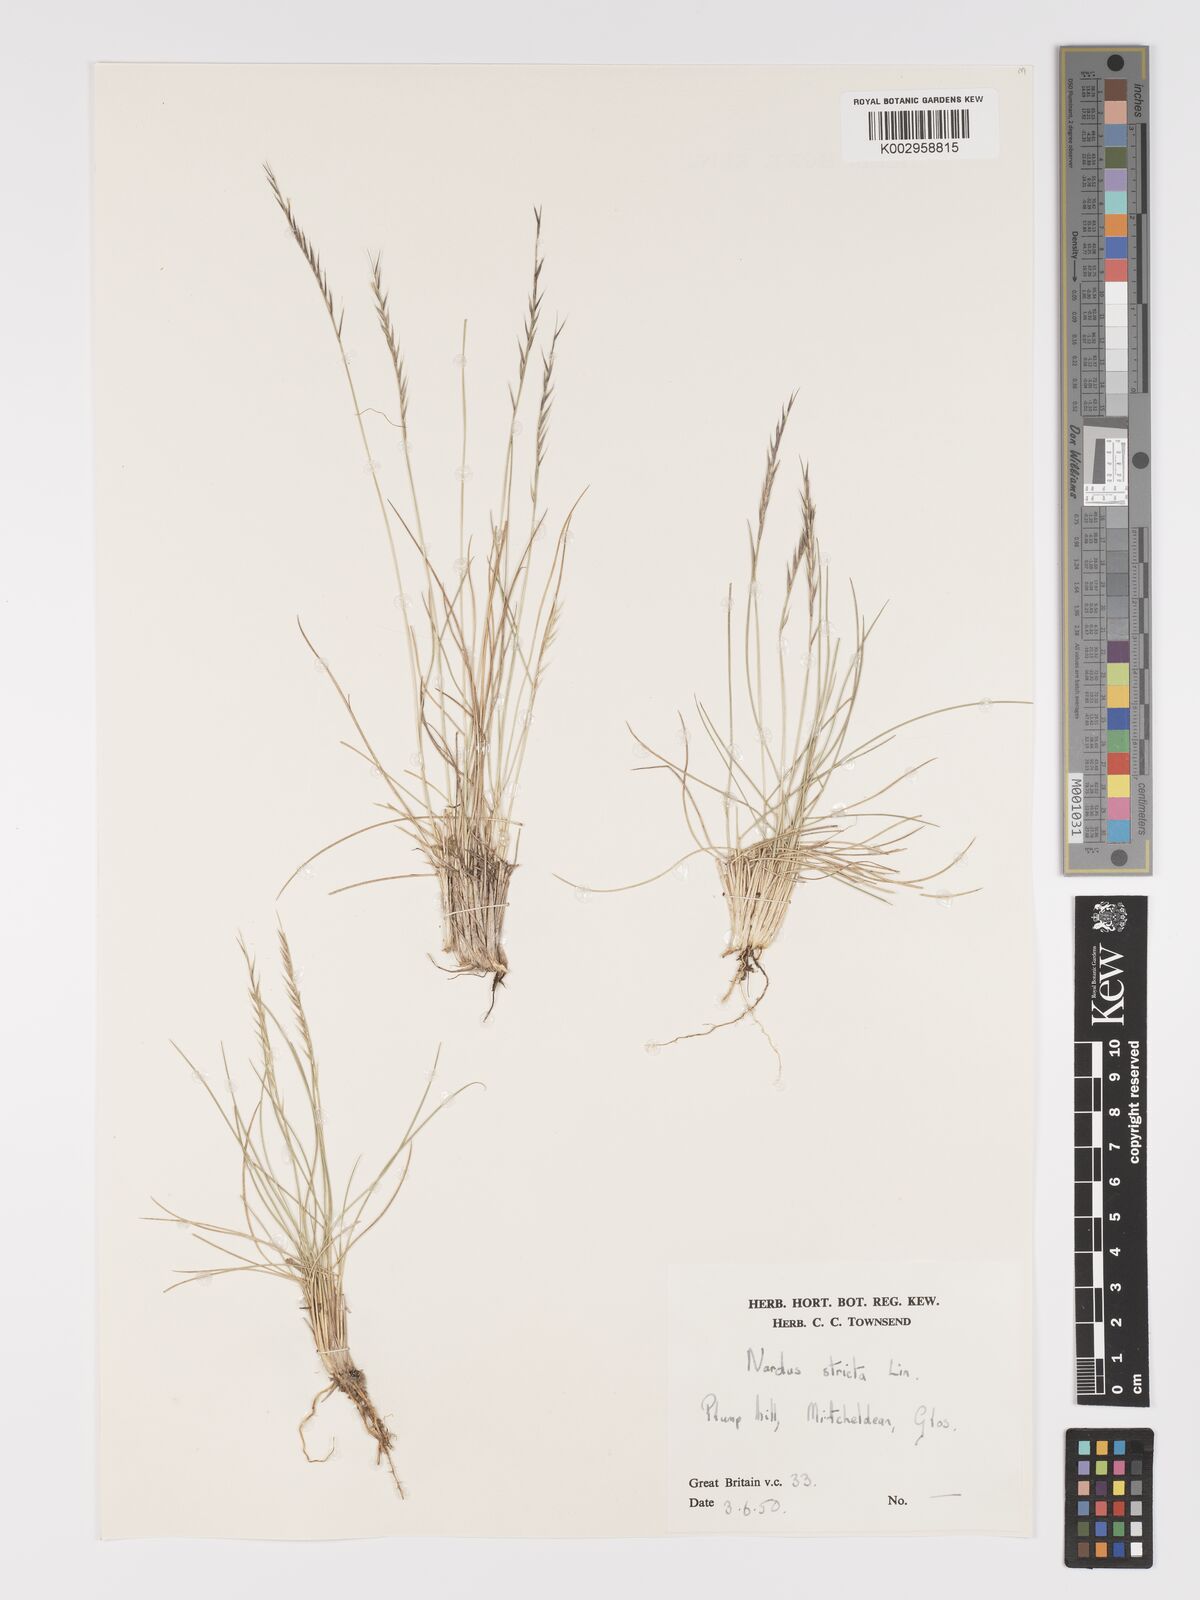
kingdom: Plantae
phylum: Tracheophyta
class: Liliopsida
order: Poales
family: Poaceae
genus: Nardus
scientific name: Nardus stricta
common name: Mat-grass
